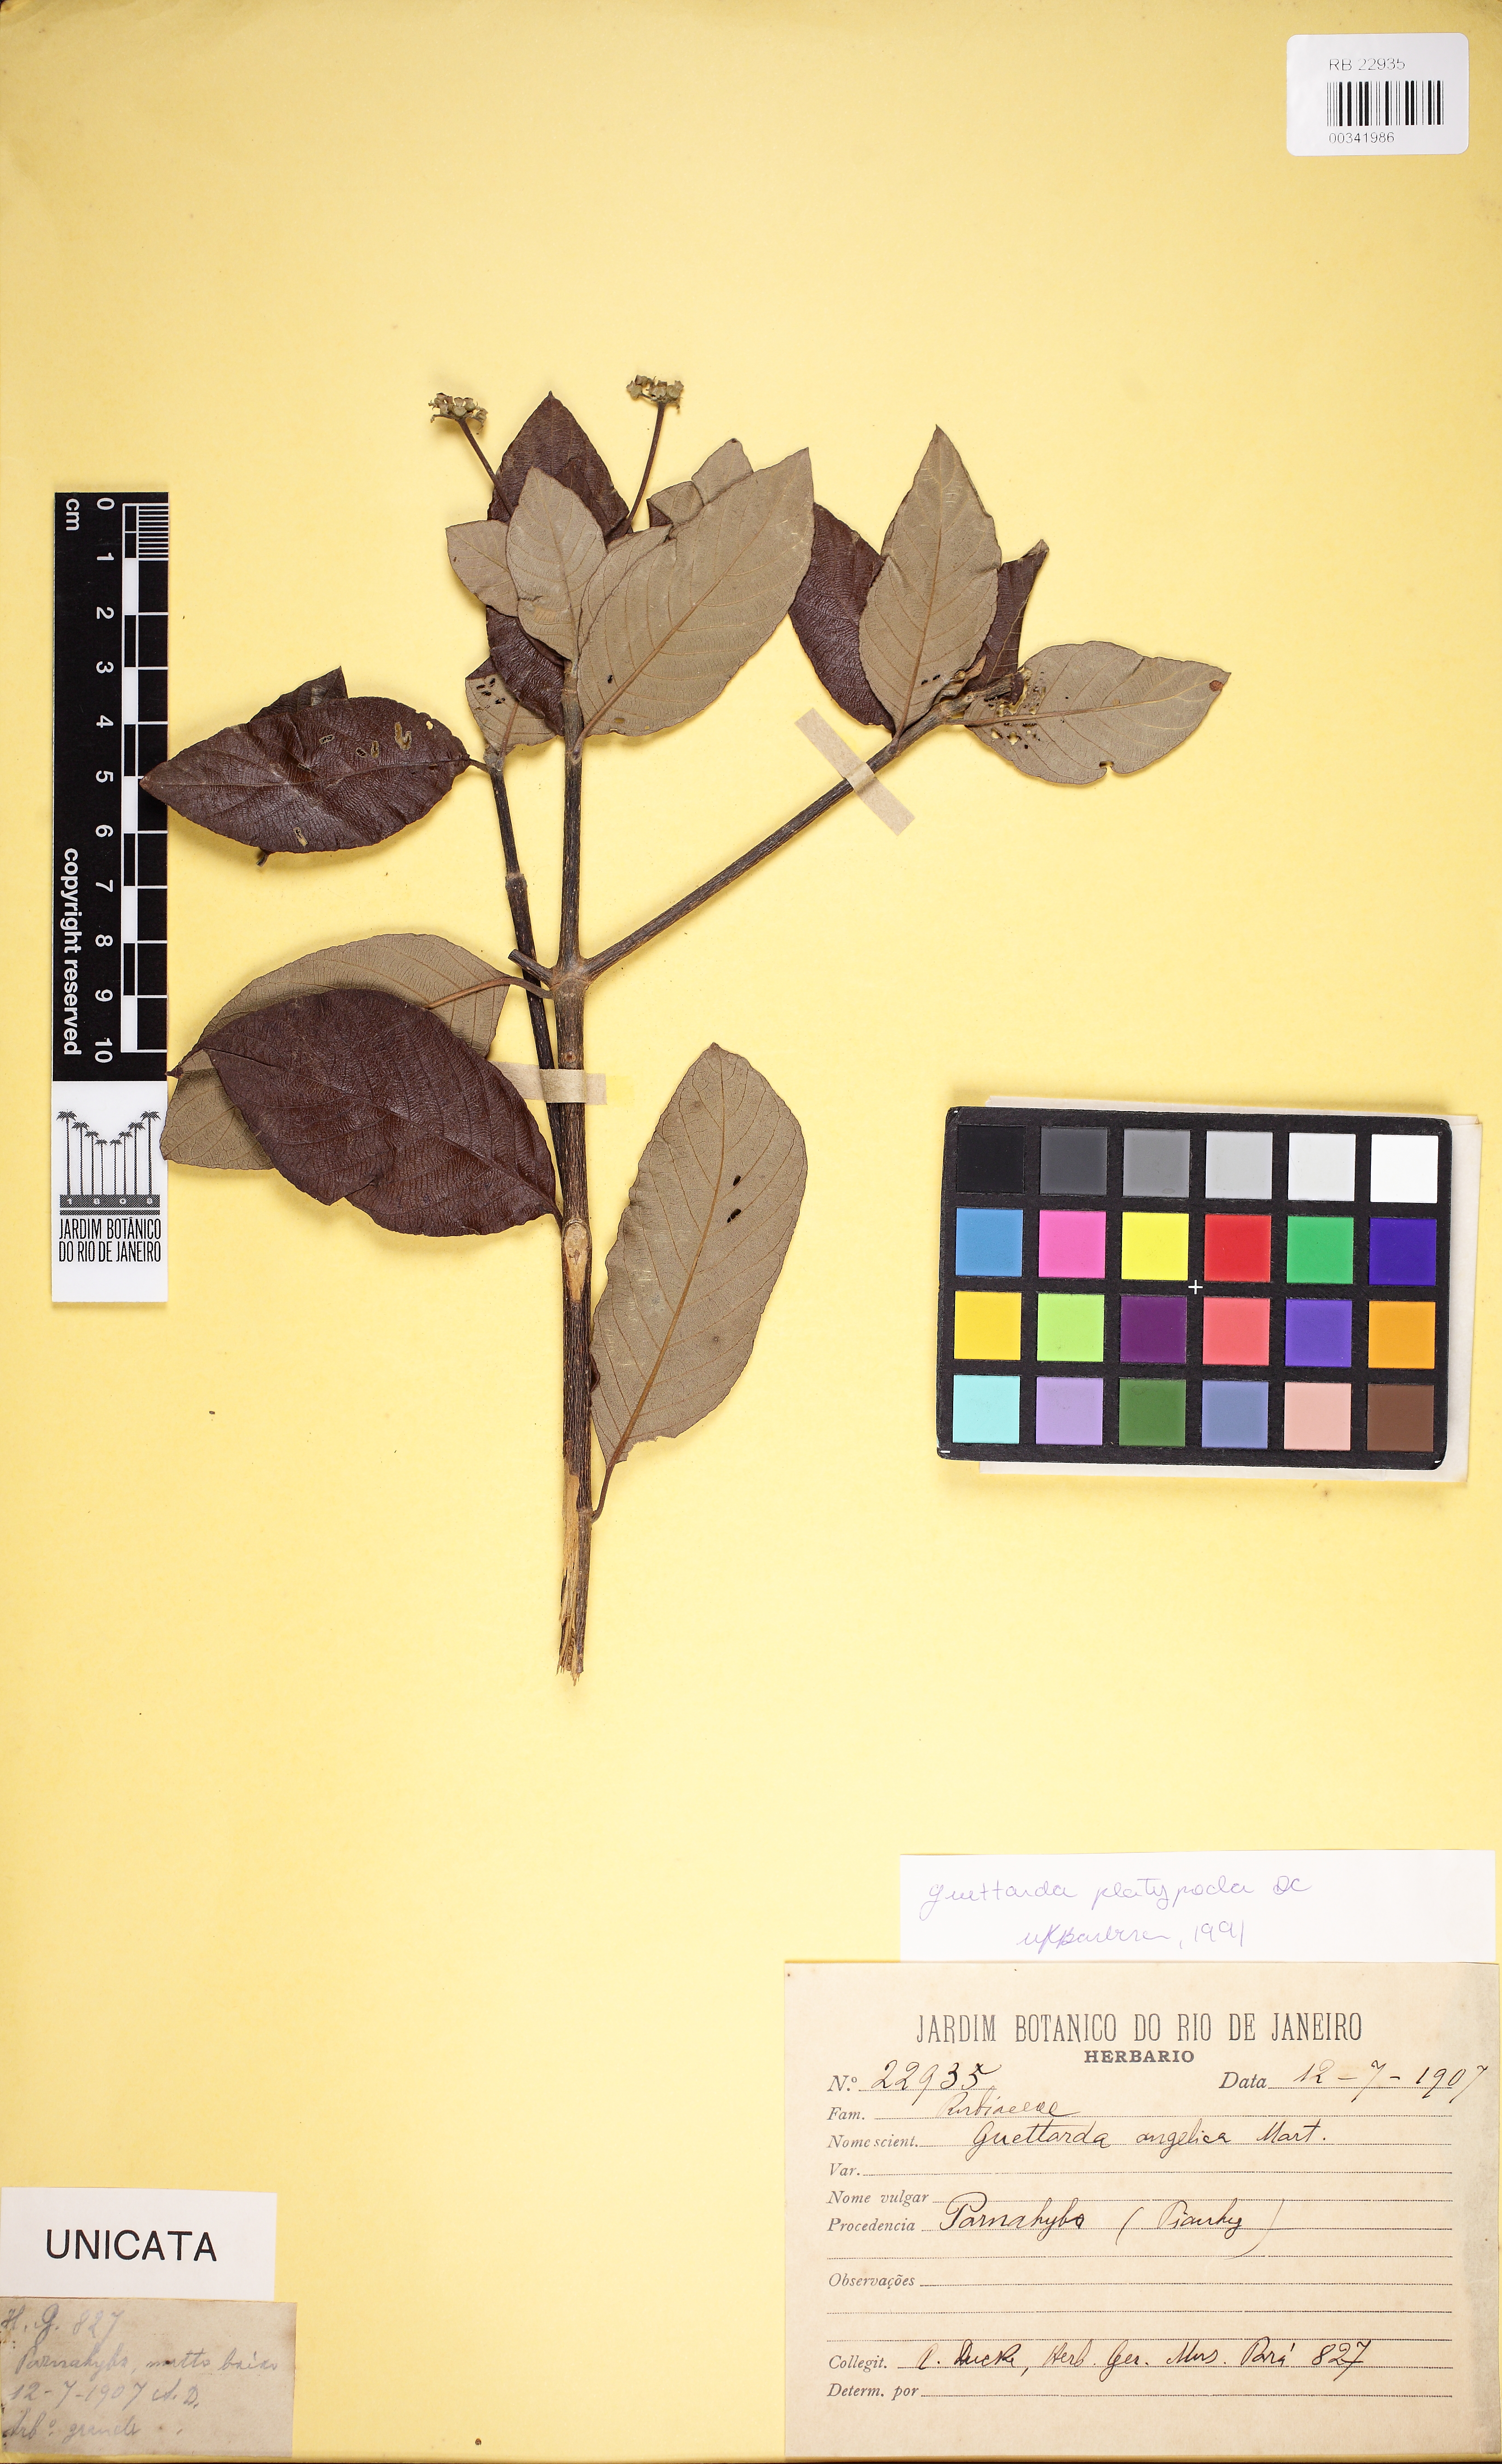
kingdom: Plantae
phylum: Tracheophyta
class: Magnoliopsida
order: Gentianales
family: Rubiaceae
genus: Guettarda
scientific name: Guettarda platypoda
